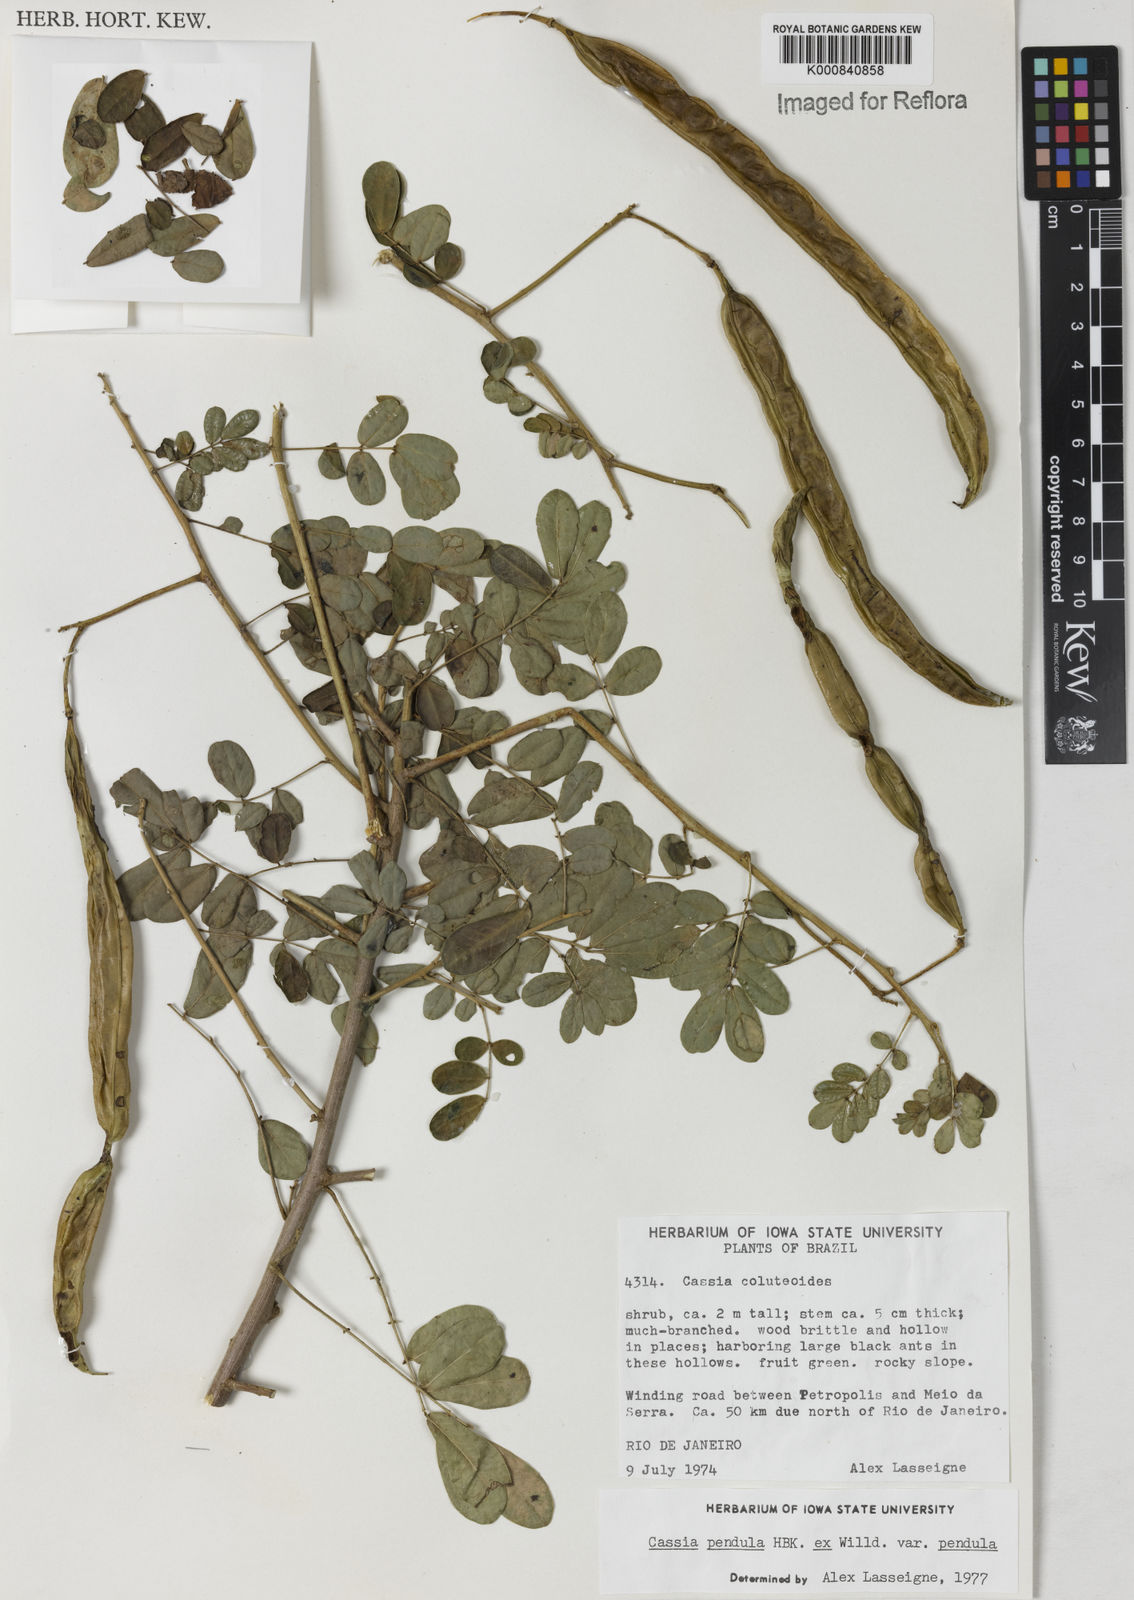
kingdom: Plantae
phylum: Tracheophyta
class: Magnoliopsida
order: Fabales
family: Fabaceae
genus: Senna
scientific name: Senna pendula
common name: Easter cassia
